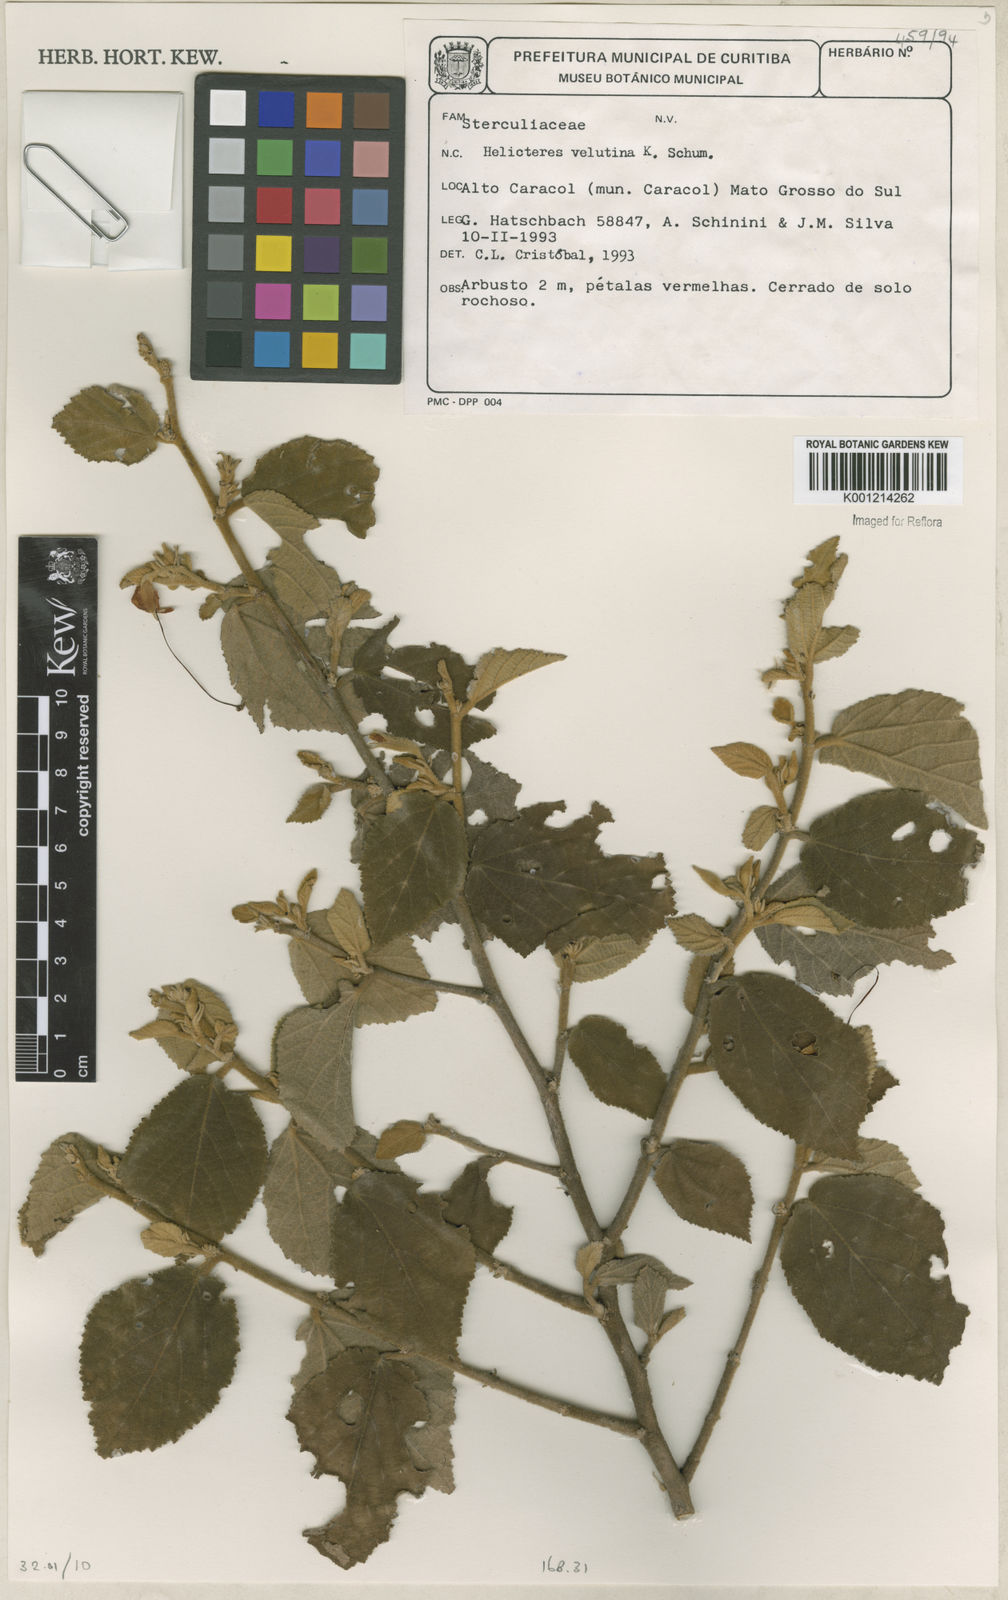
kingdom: Plantae
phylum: Tracheophyta
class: Magnoliopsida
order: Malvales
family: Malvaceae
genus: Helicteres
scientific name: Helicteres velutina
